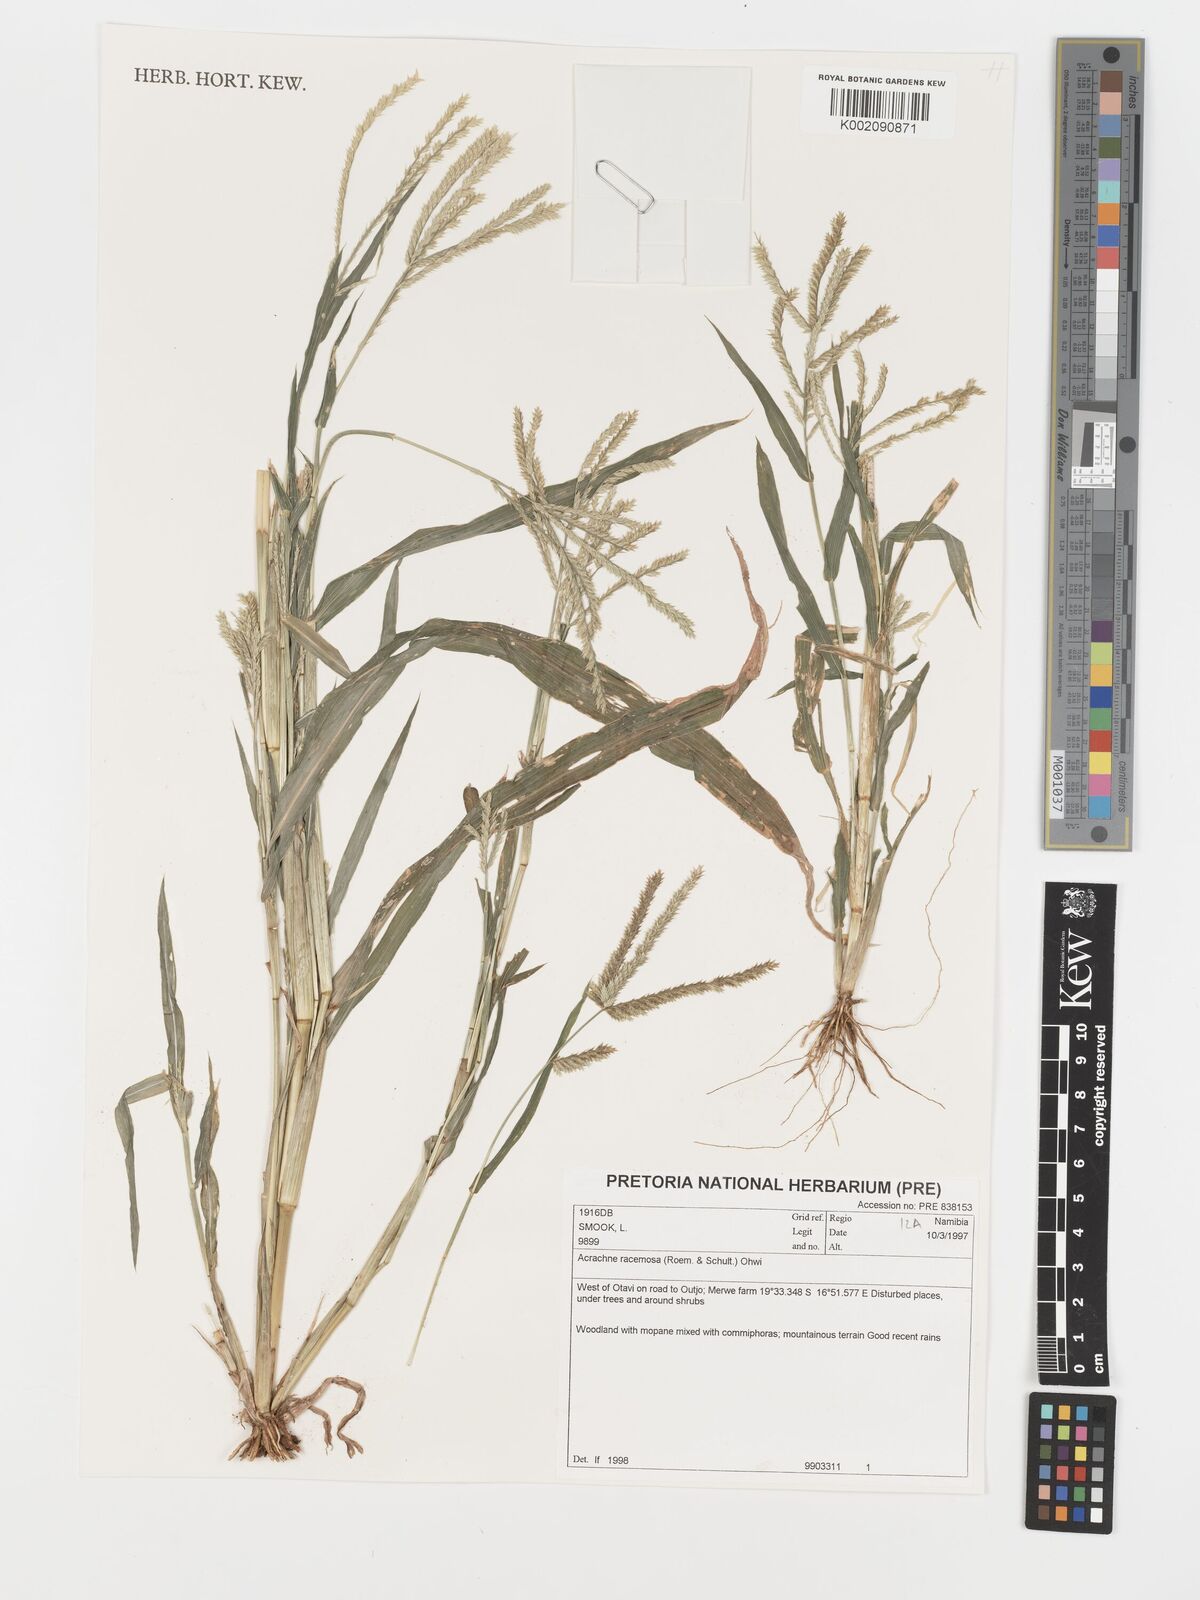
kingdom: Plantae
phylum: Tracheophyta
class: Liliopsida
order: Poales
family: Poaceae
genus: Acrachne
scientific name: Acrachne racemosa
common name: Goosegrass
